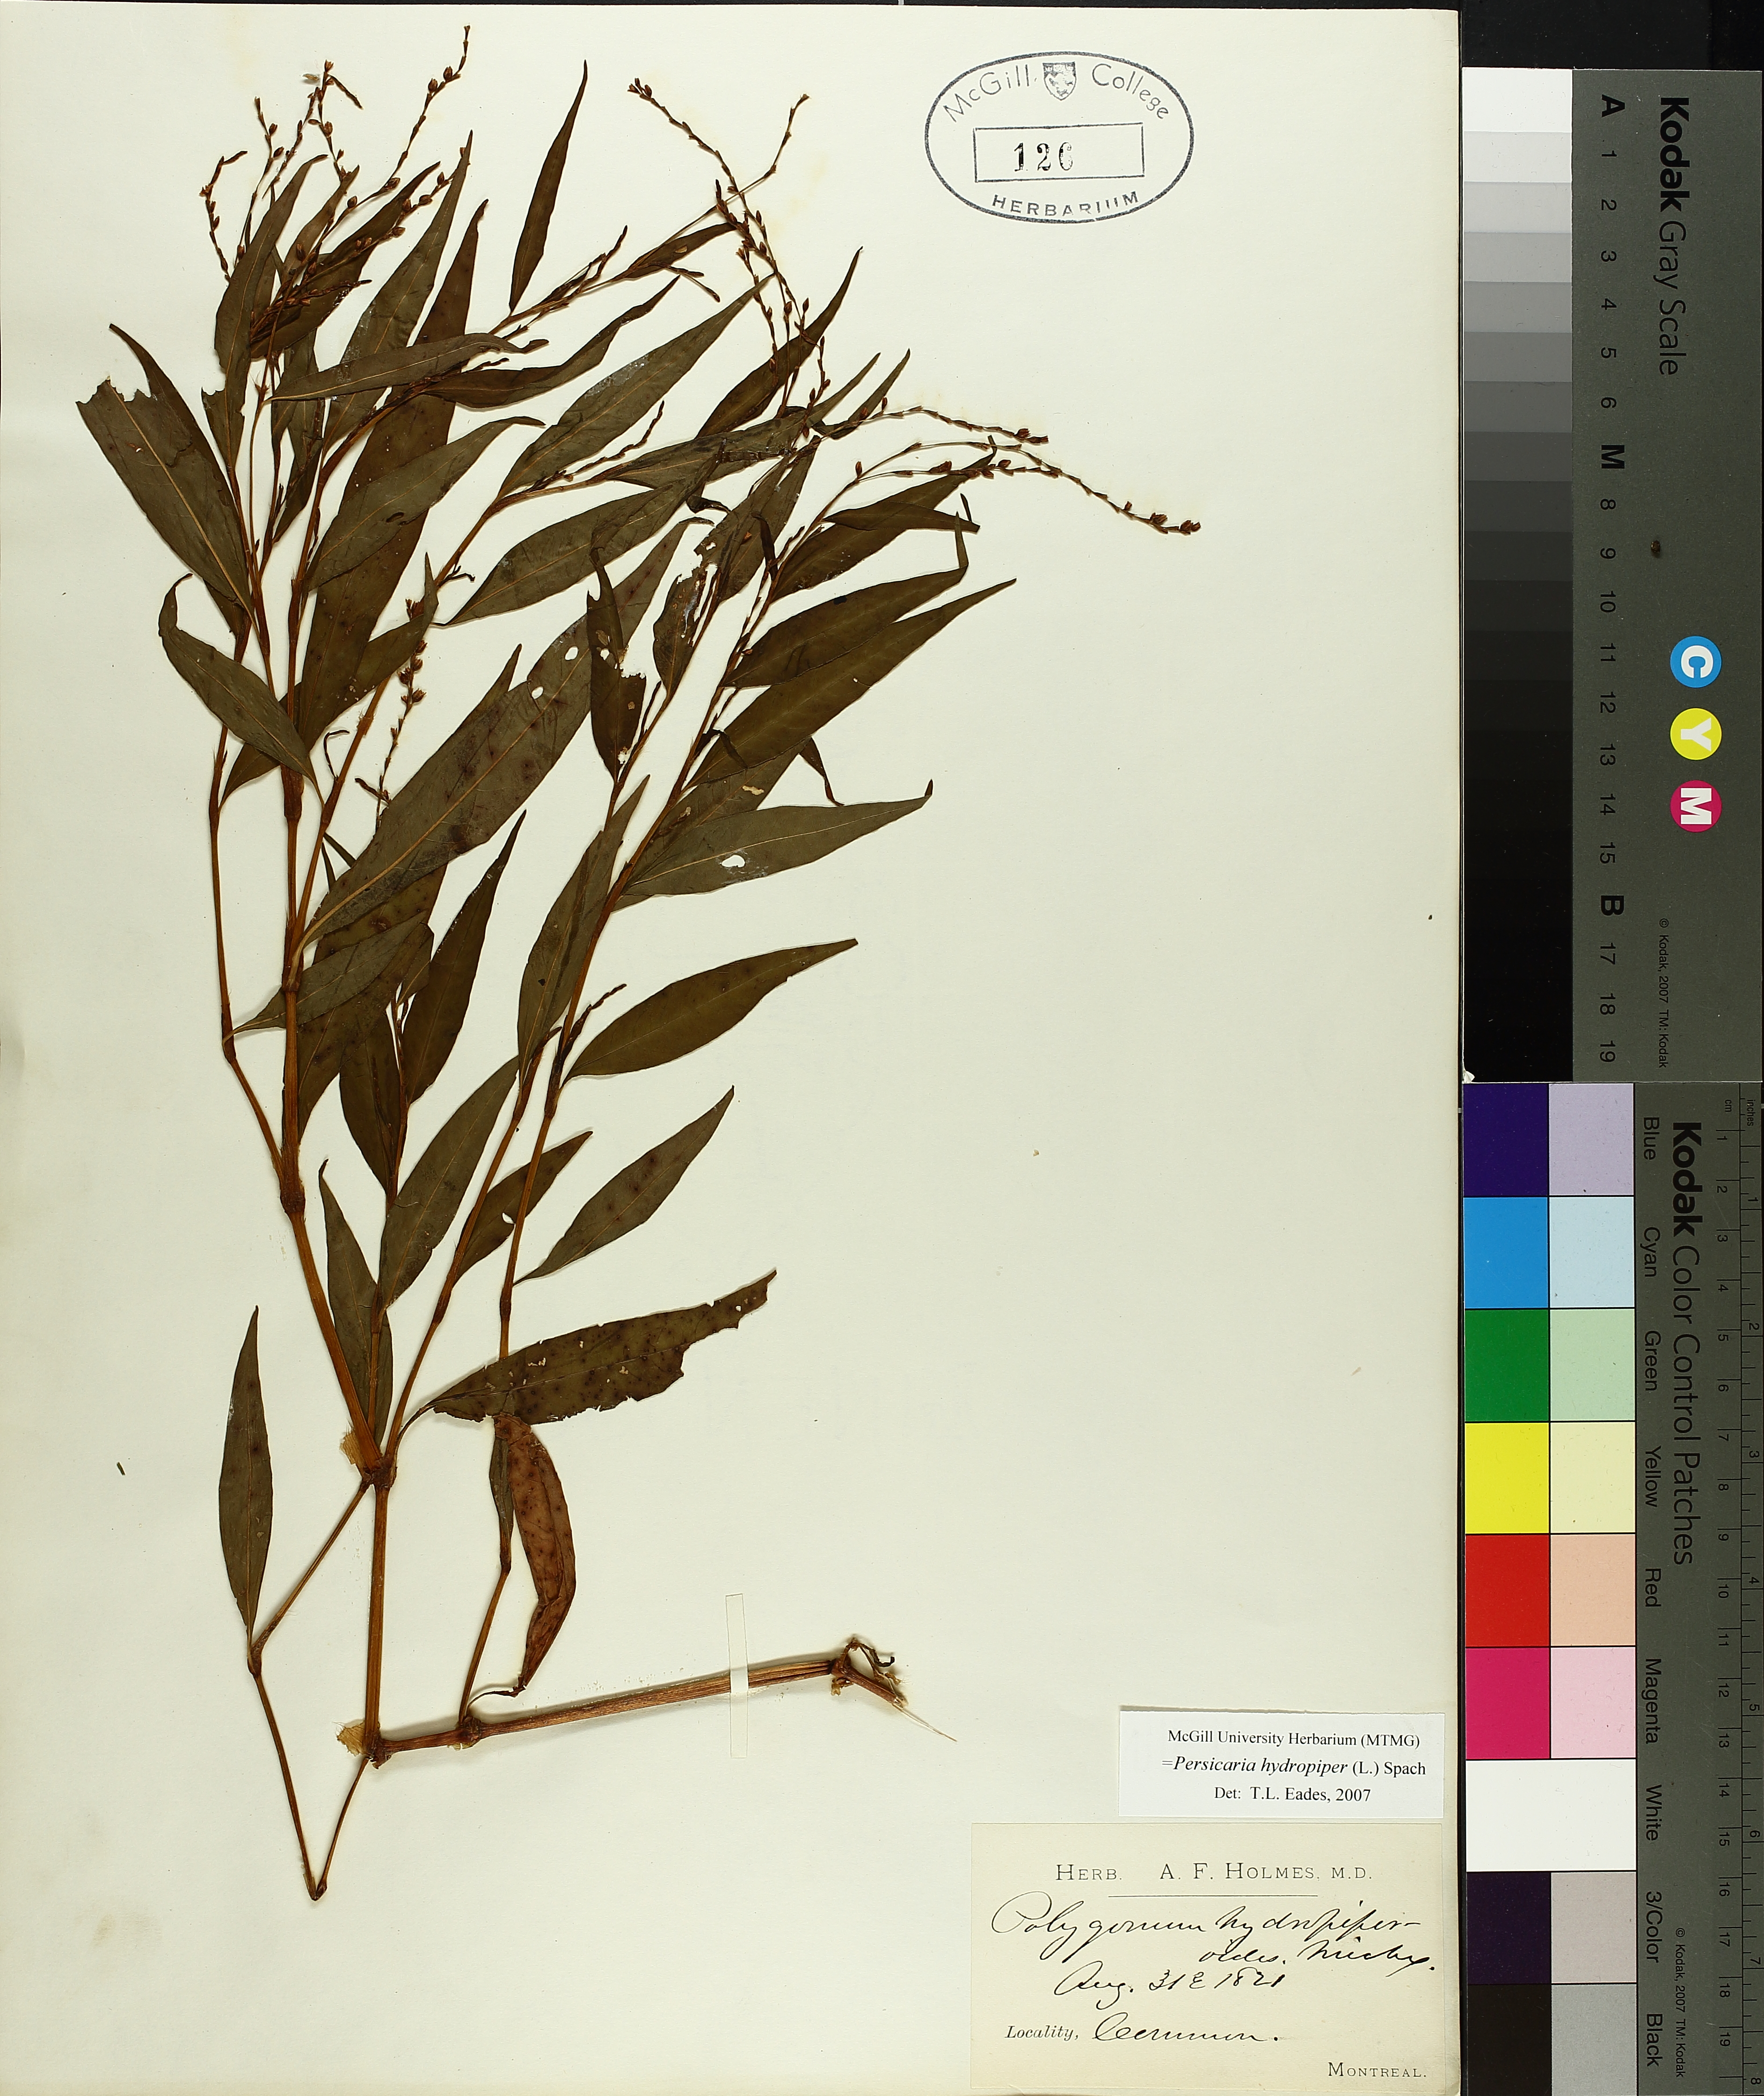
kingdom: Plantae
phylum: Tracheophyta
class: Magnoliopsida
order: Caryophyllales
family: Polygonaceae
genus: Persicaria
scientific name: Persicaria hydropiper
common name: Water-pepper
